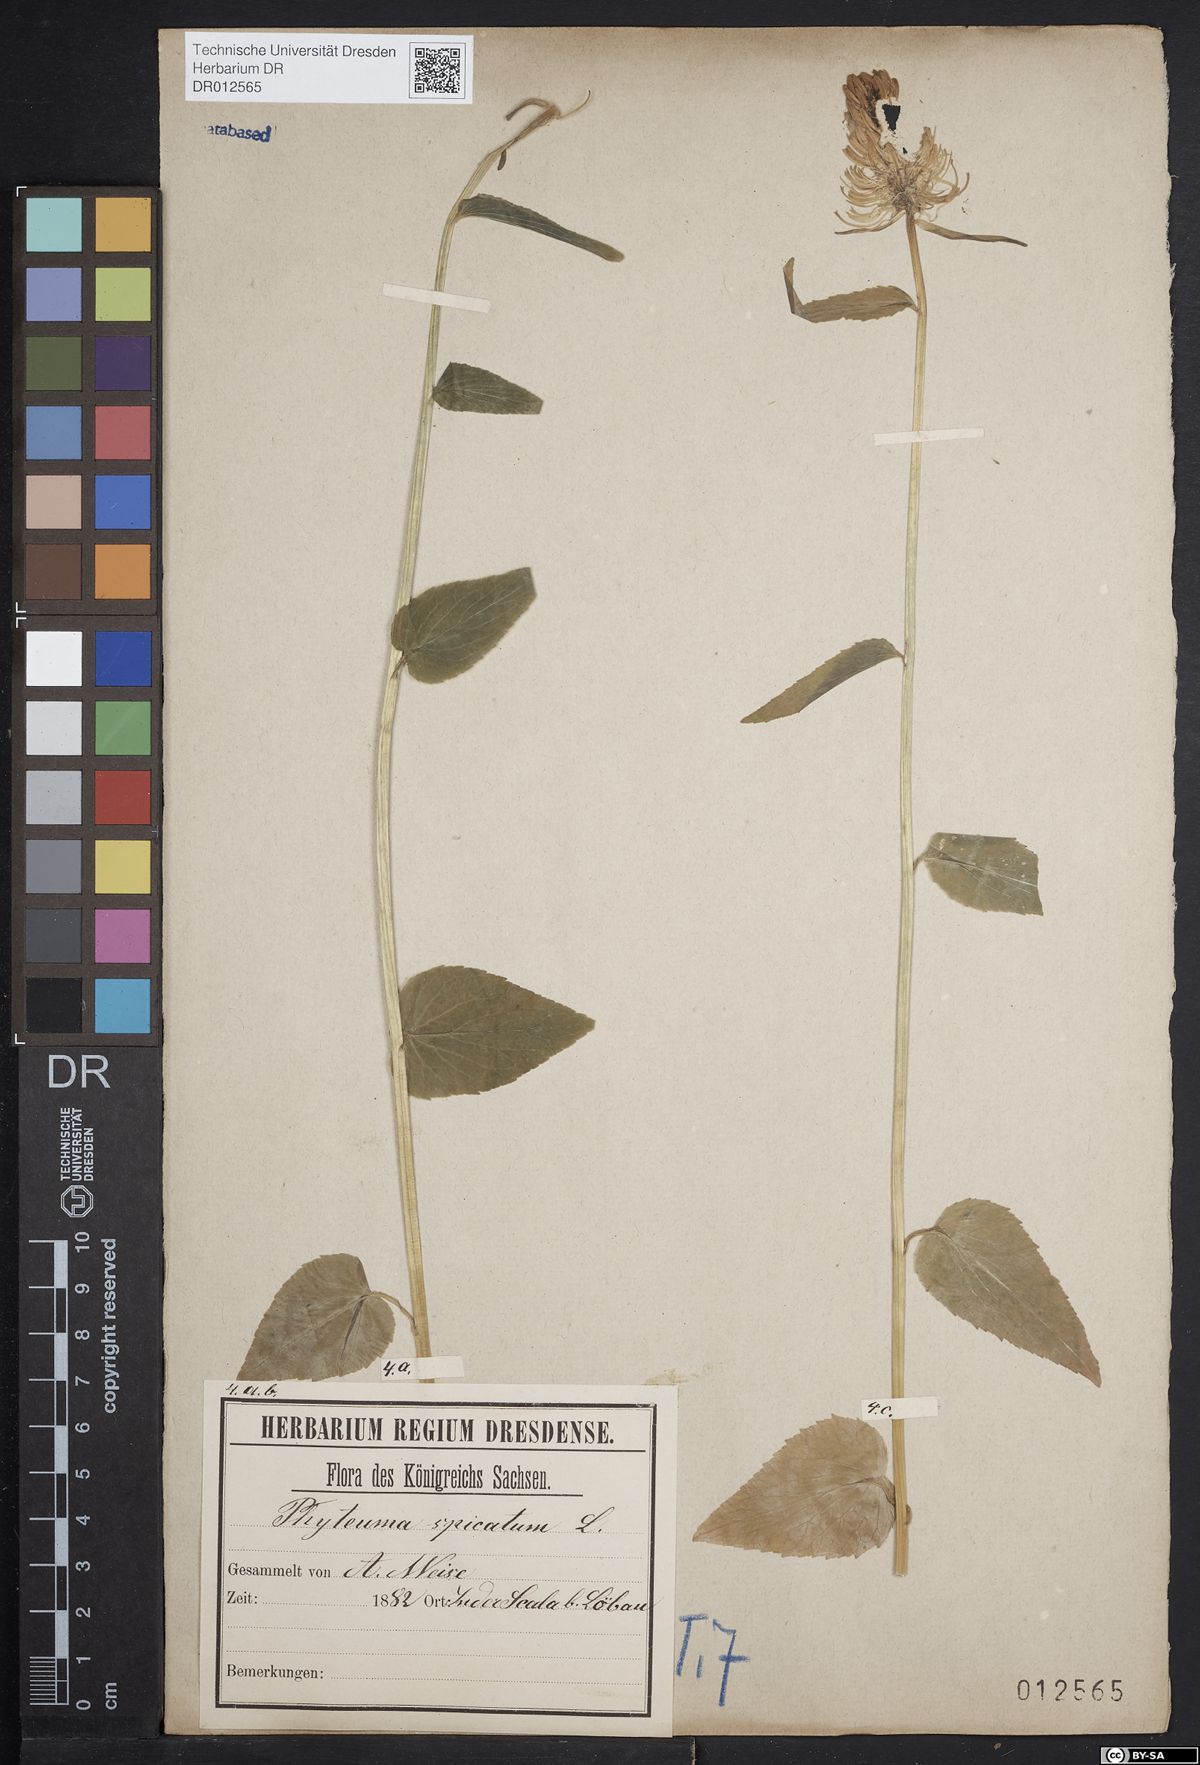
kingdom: Plantae
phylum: Tracheophyta
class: Magnoliopsida
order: Asterales
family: Campanulaceae
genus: Phyteuma
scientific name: Phyteuma spicatum
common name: Spiked rampion
